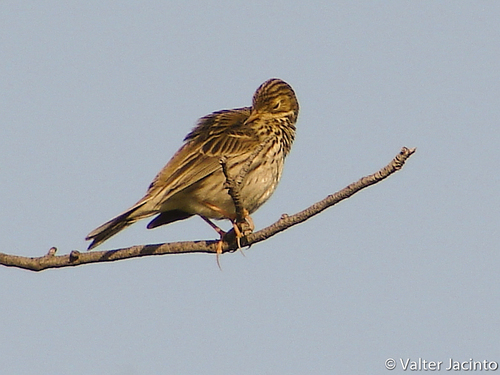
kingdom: Animalia
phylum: Chordata
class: Aves
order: Passeriformes
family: Motacillidae
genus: Anthus
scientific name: Anthus pratensis
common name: Meadow pipit
